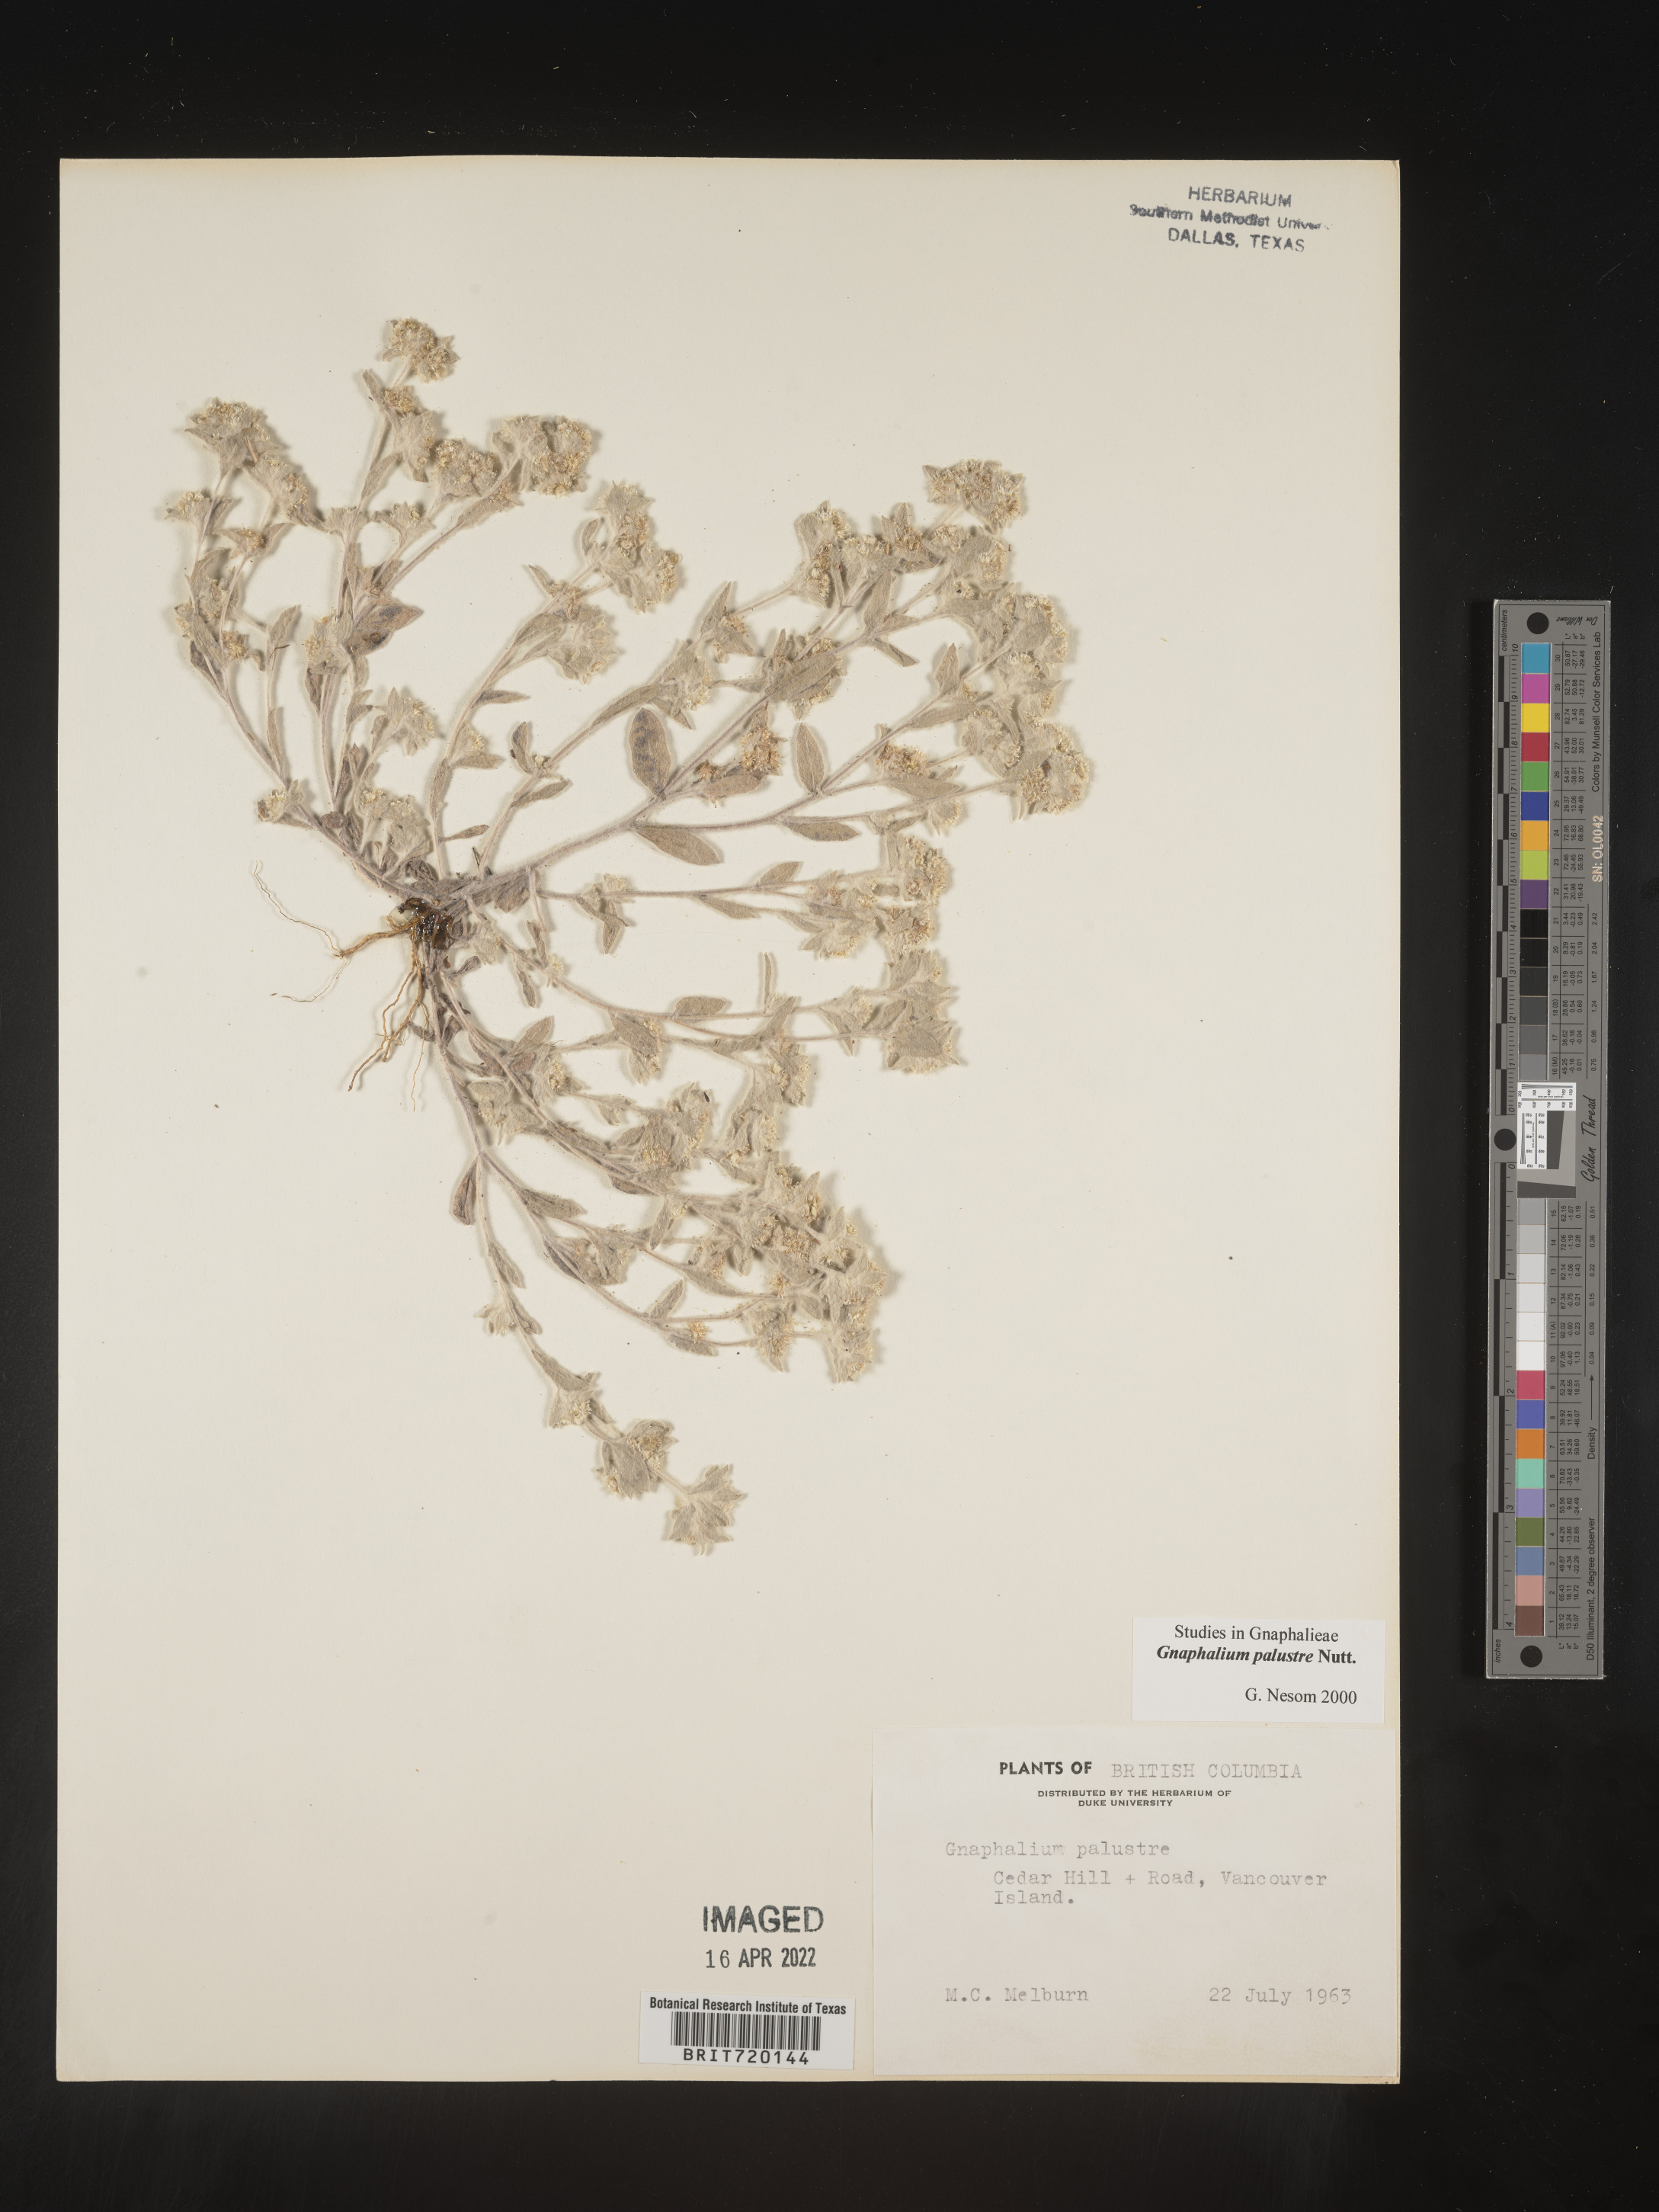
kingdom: Plantae
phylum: Tracheophyta
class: Magnoliopsida
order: Asterales
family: Asteraceae
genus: Gnaphalium
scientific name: Gnaphalium palustre
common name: Western marsh cudweed
